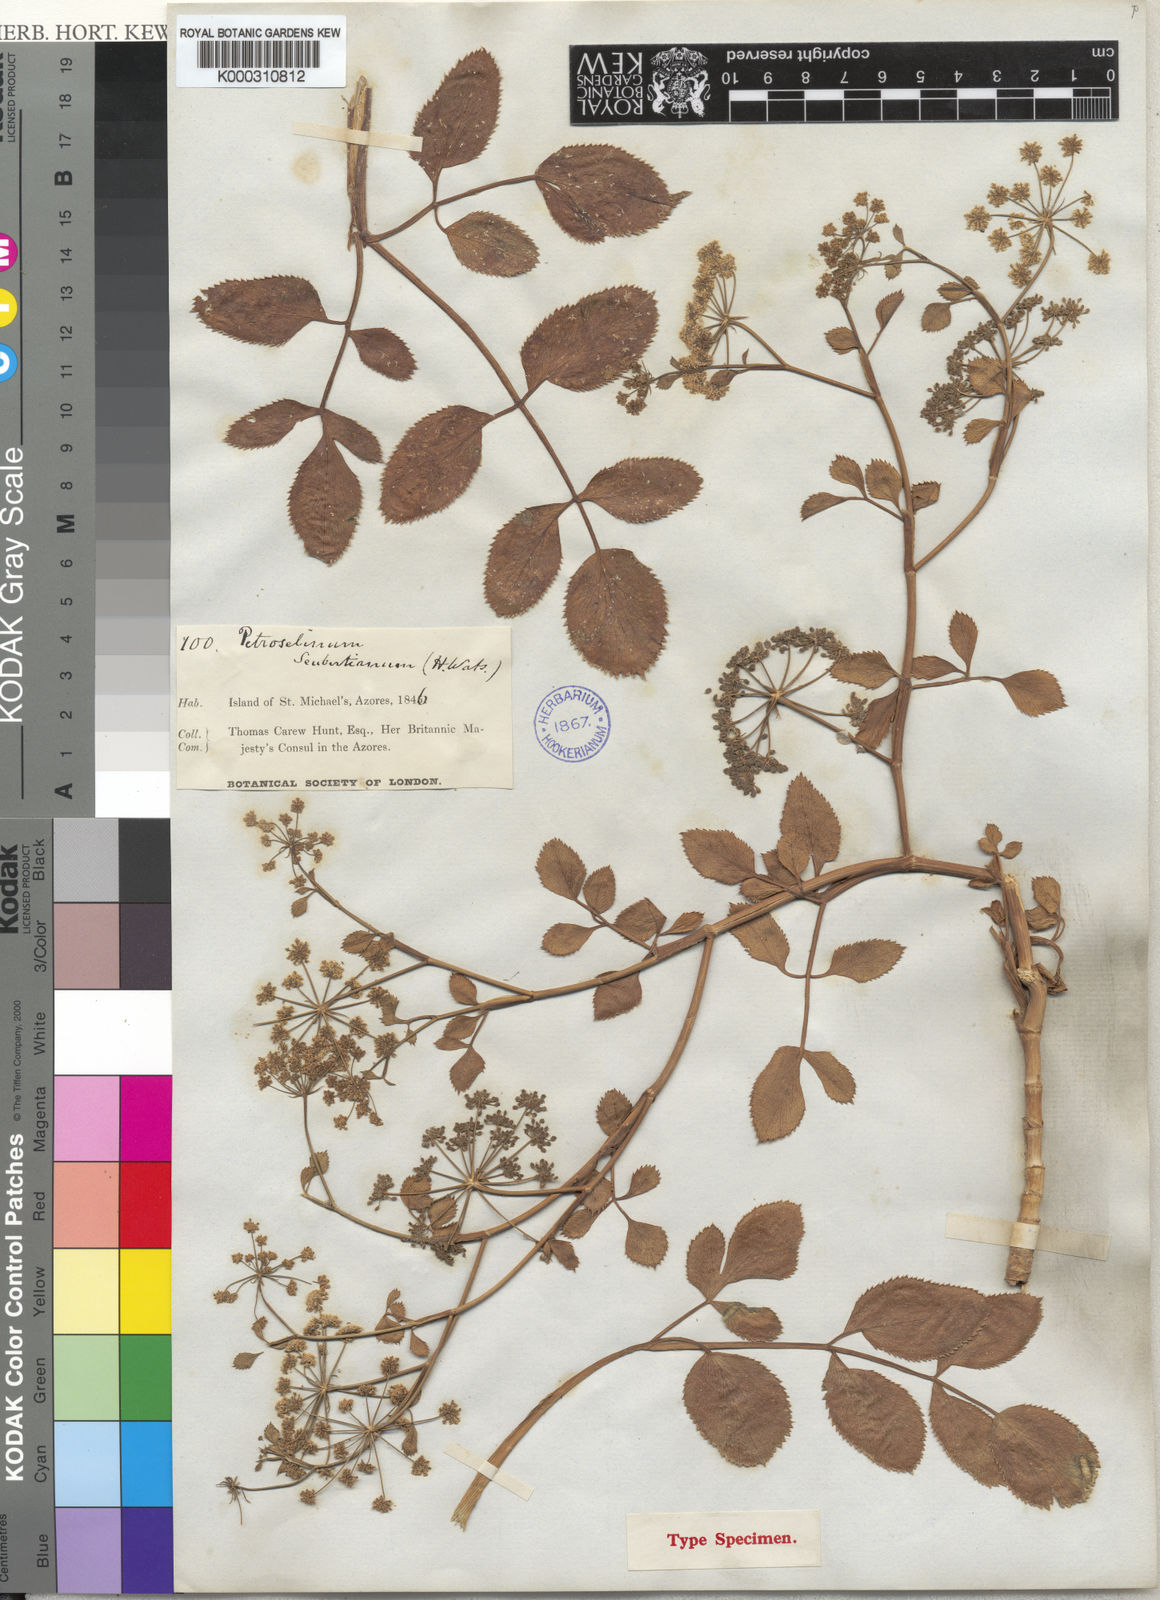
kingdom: Plantae
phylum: Tracheophyta
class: Magnoliopsida
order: Apiales
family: Apiaceae
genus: Ammi
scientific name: Ammi seubertianum
